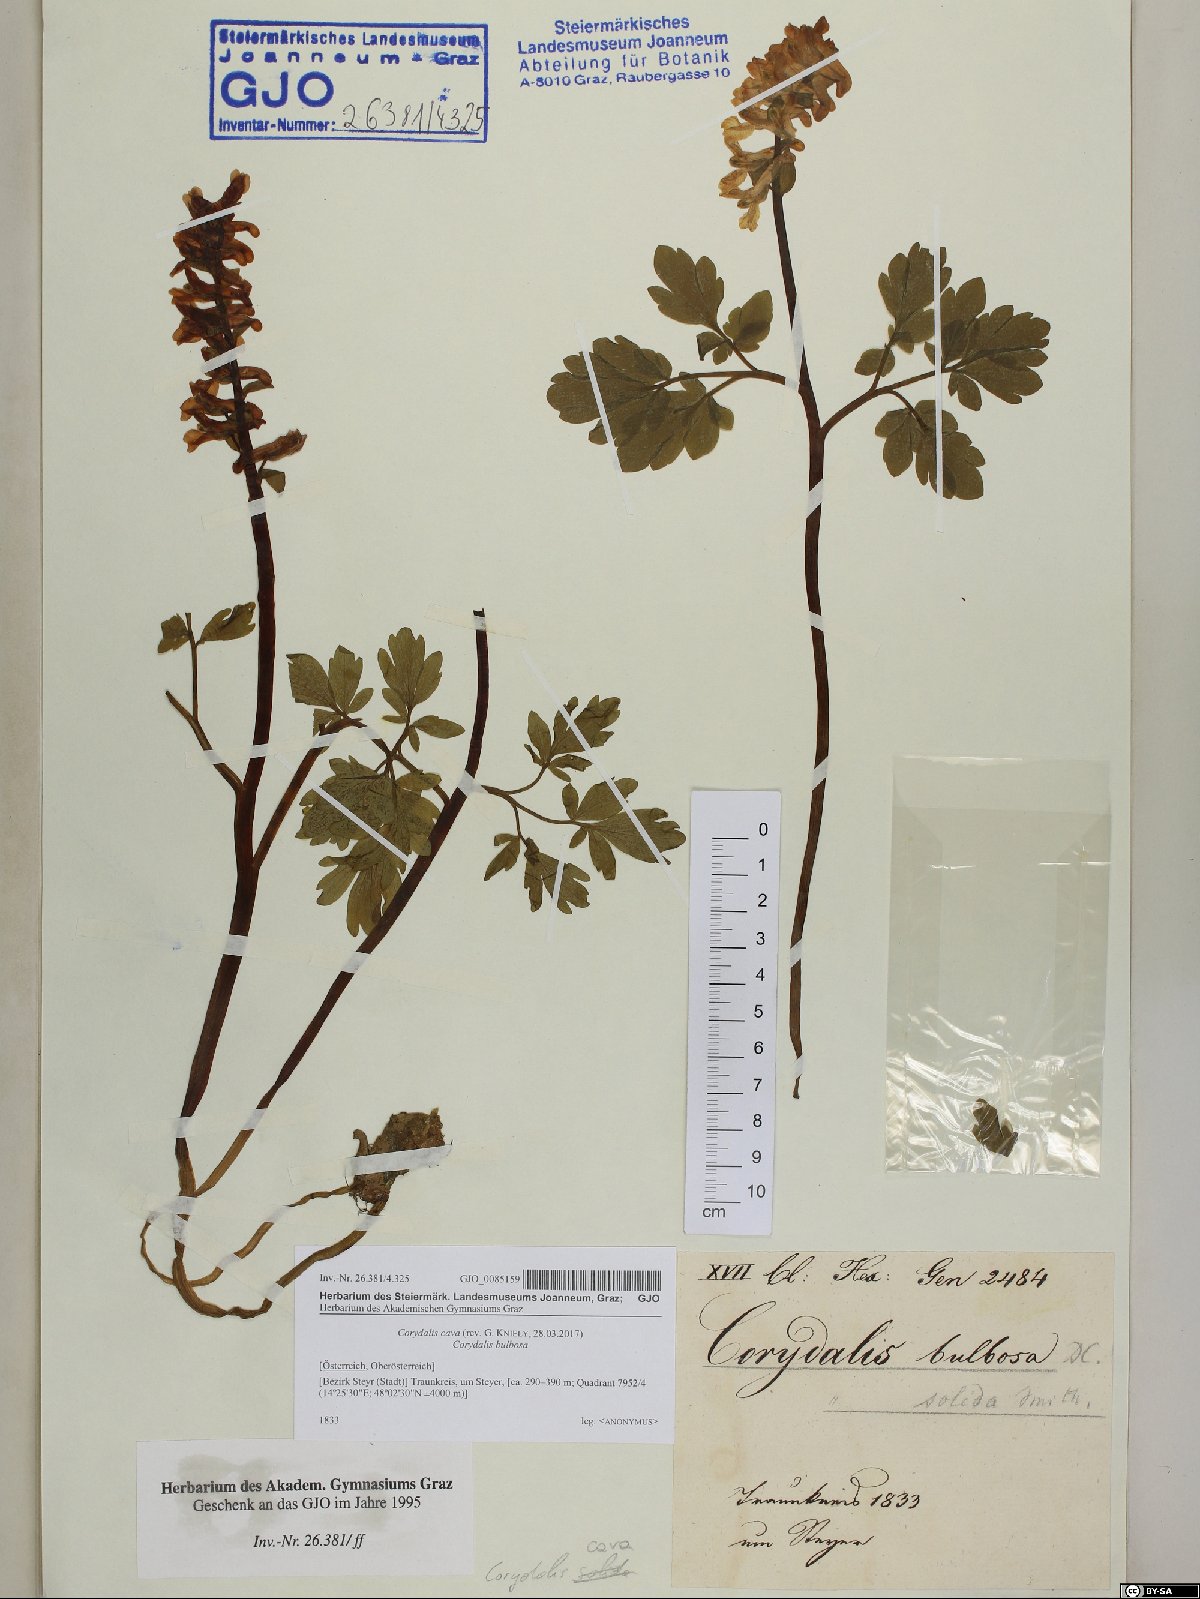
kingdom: Plantae
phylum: Tracheophyta
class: Magnoliopsida
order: Ranunculales
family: Papaveraceae
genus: Corydalis
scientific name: Corydalis cava
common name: Hollowroot
